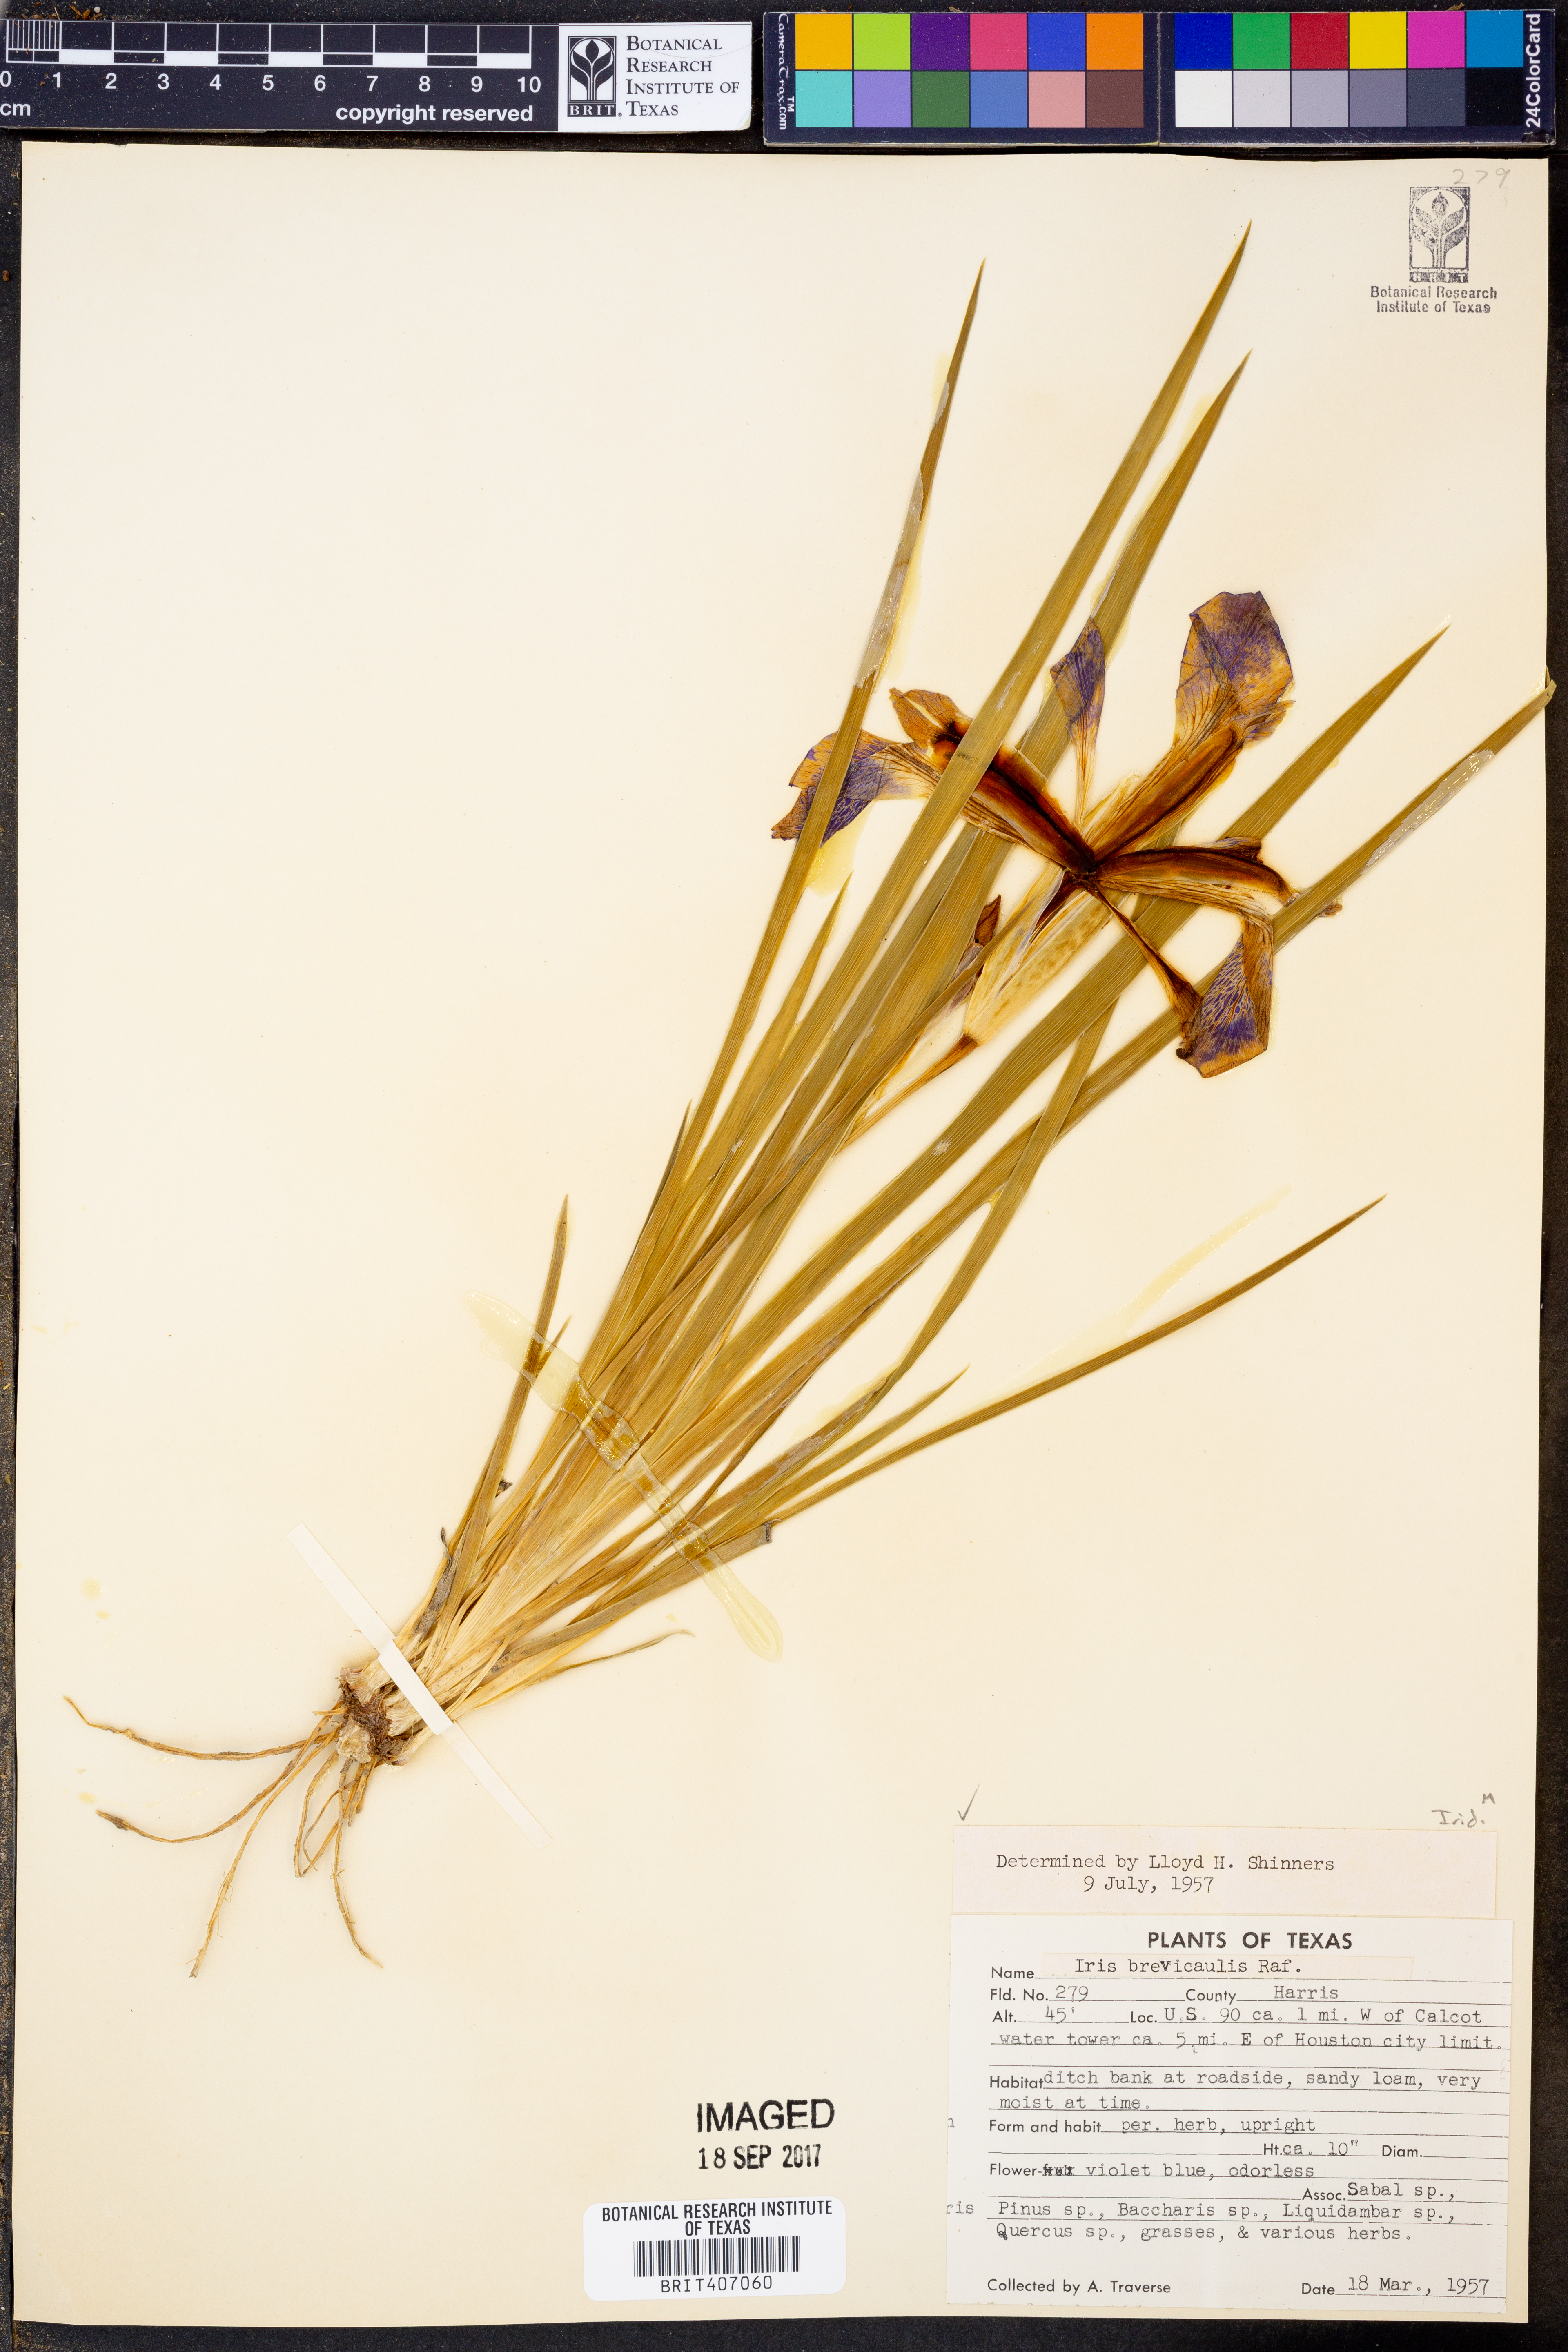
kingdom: Plantae
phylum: Tracheophyta
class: Liliopsida
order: Asparagales
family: Iridaceae
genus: Iris
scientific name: Iris brevicaulis
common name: Zigzag iris
